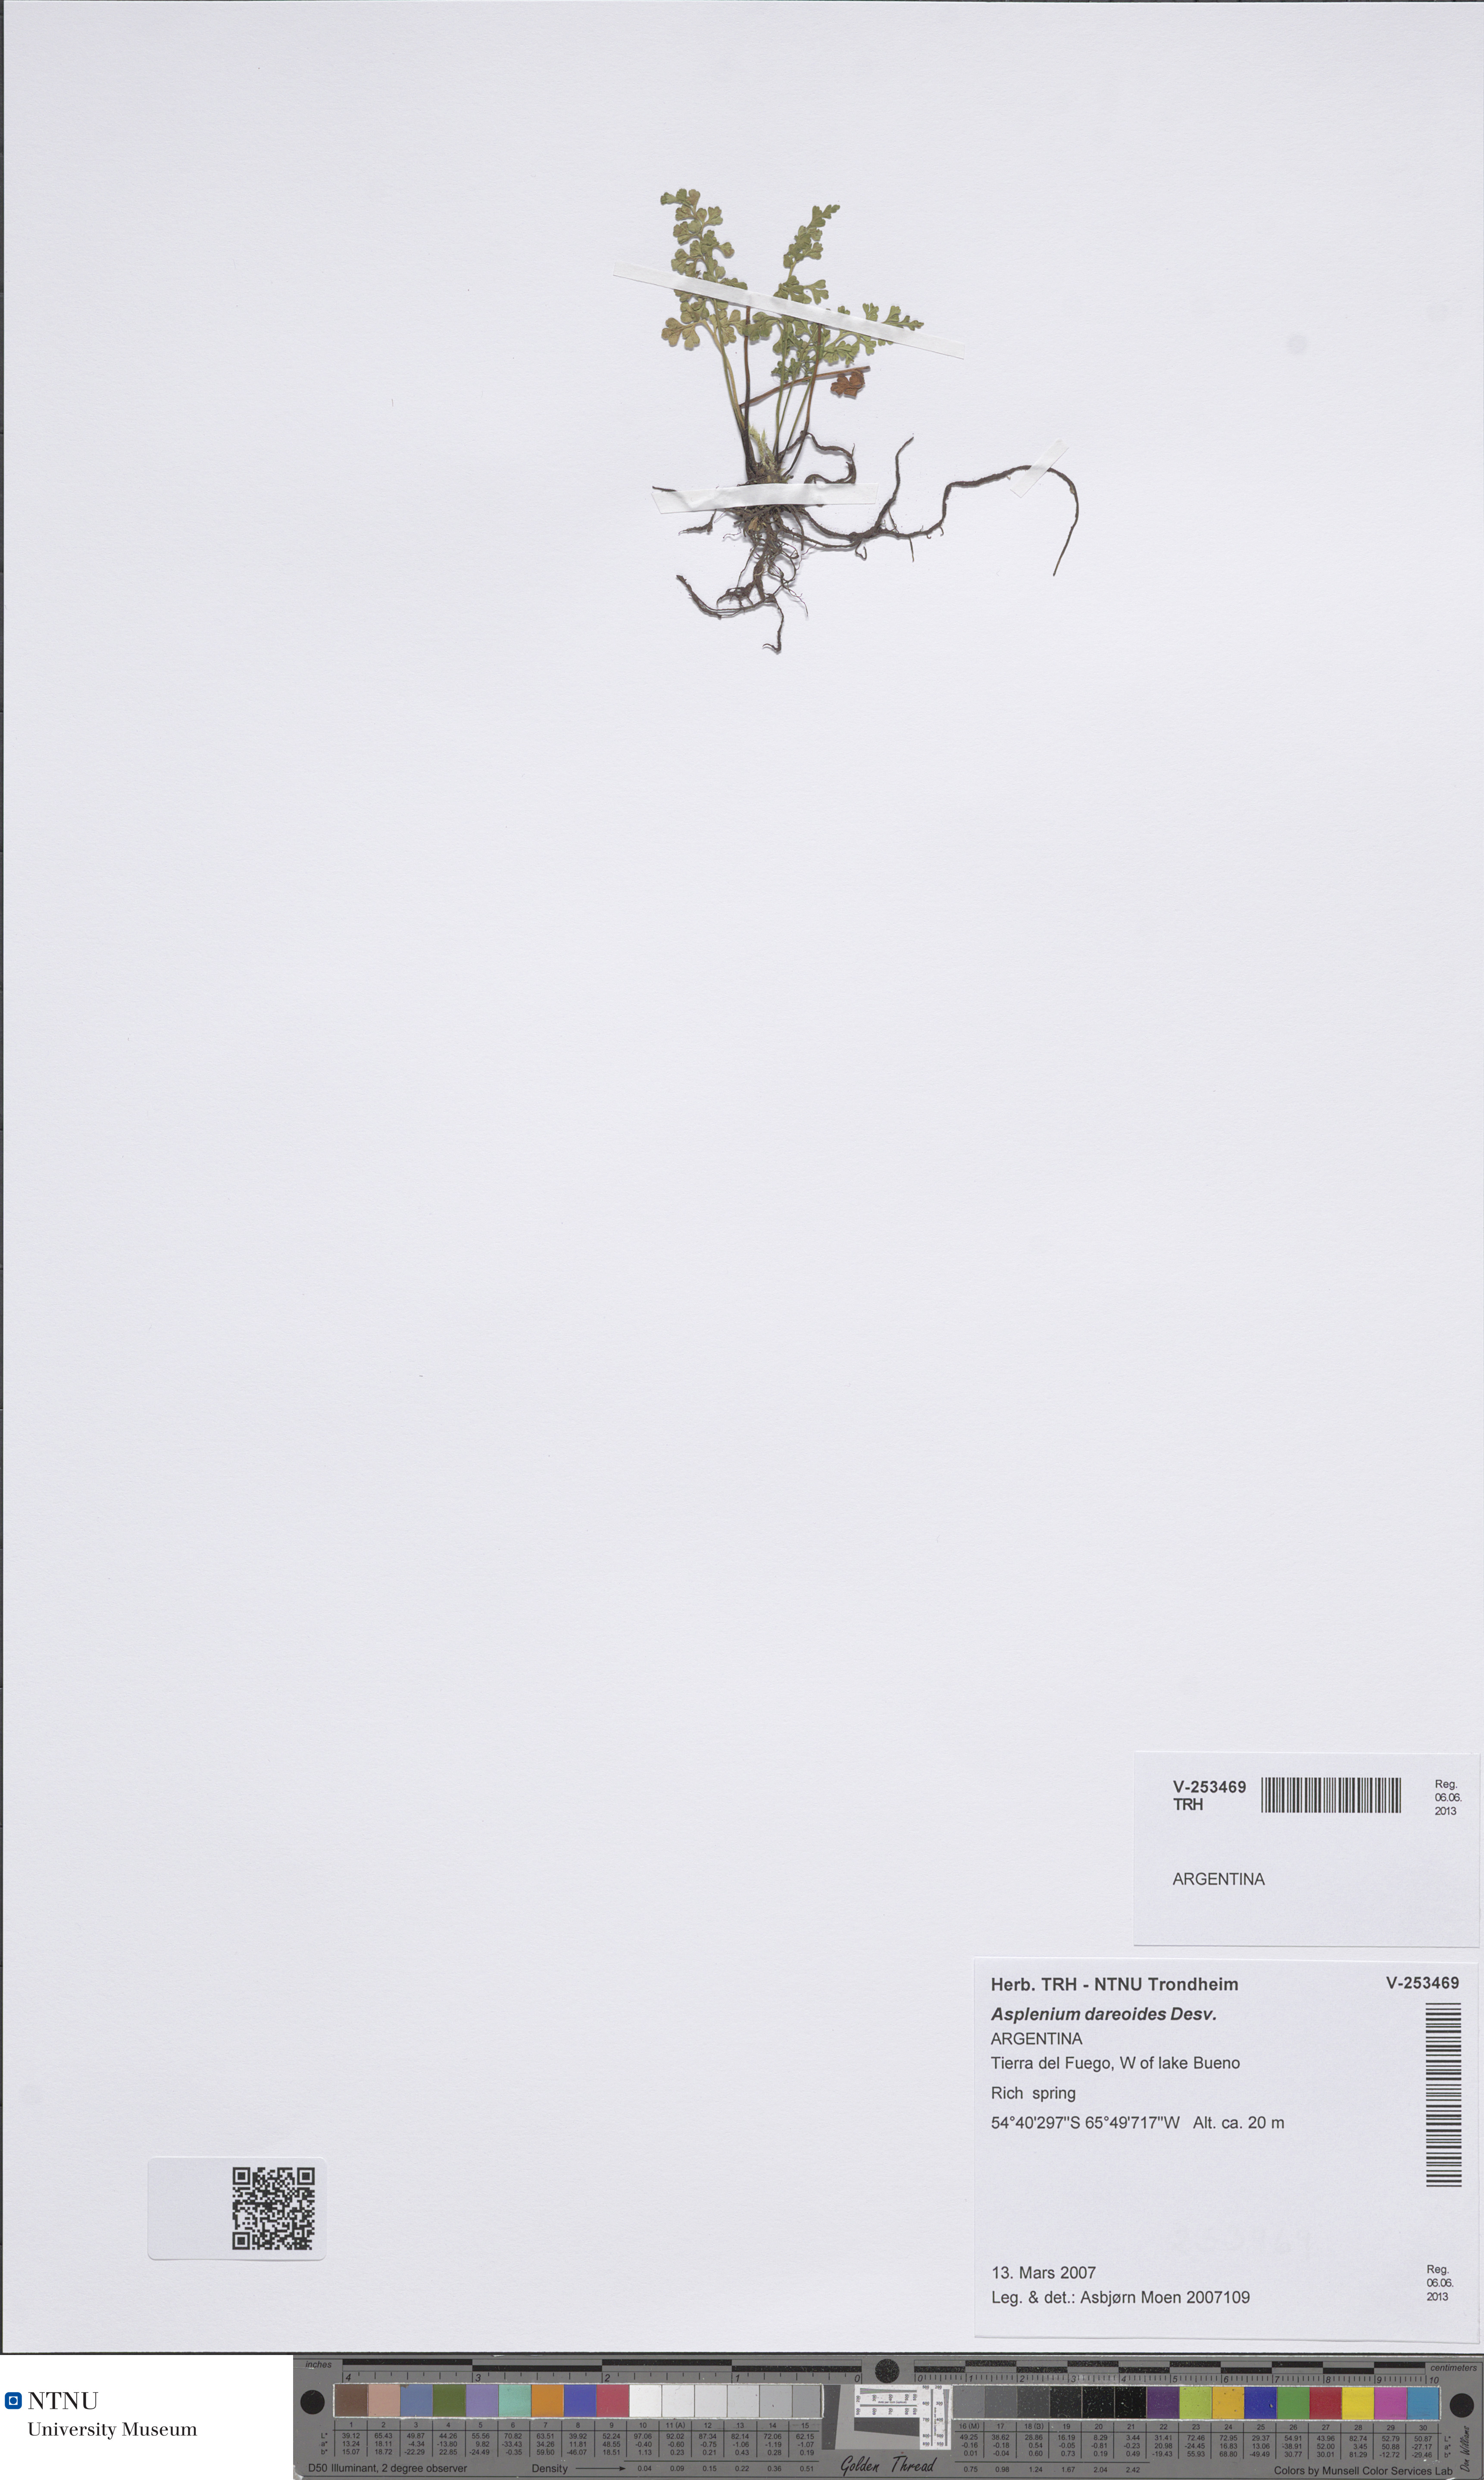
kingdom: Plantae
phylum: Tracheophyta
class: Polypodiopsida
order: Polypodiales
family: Aspleniaceae
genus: Asplenium
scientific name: Asplenium dareoides
